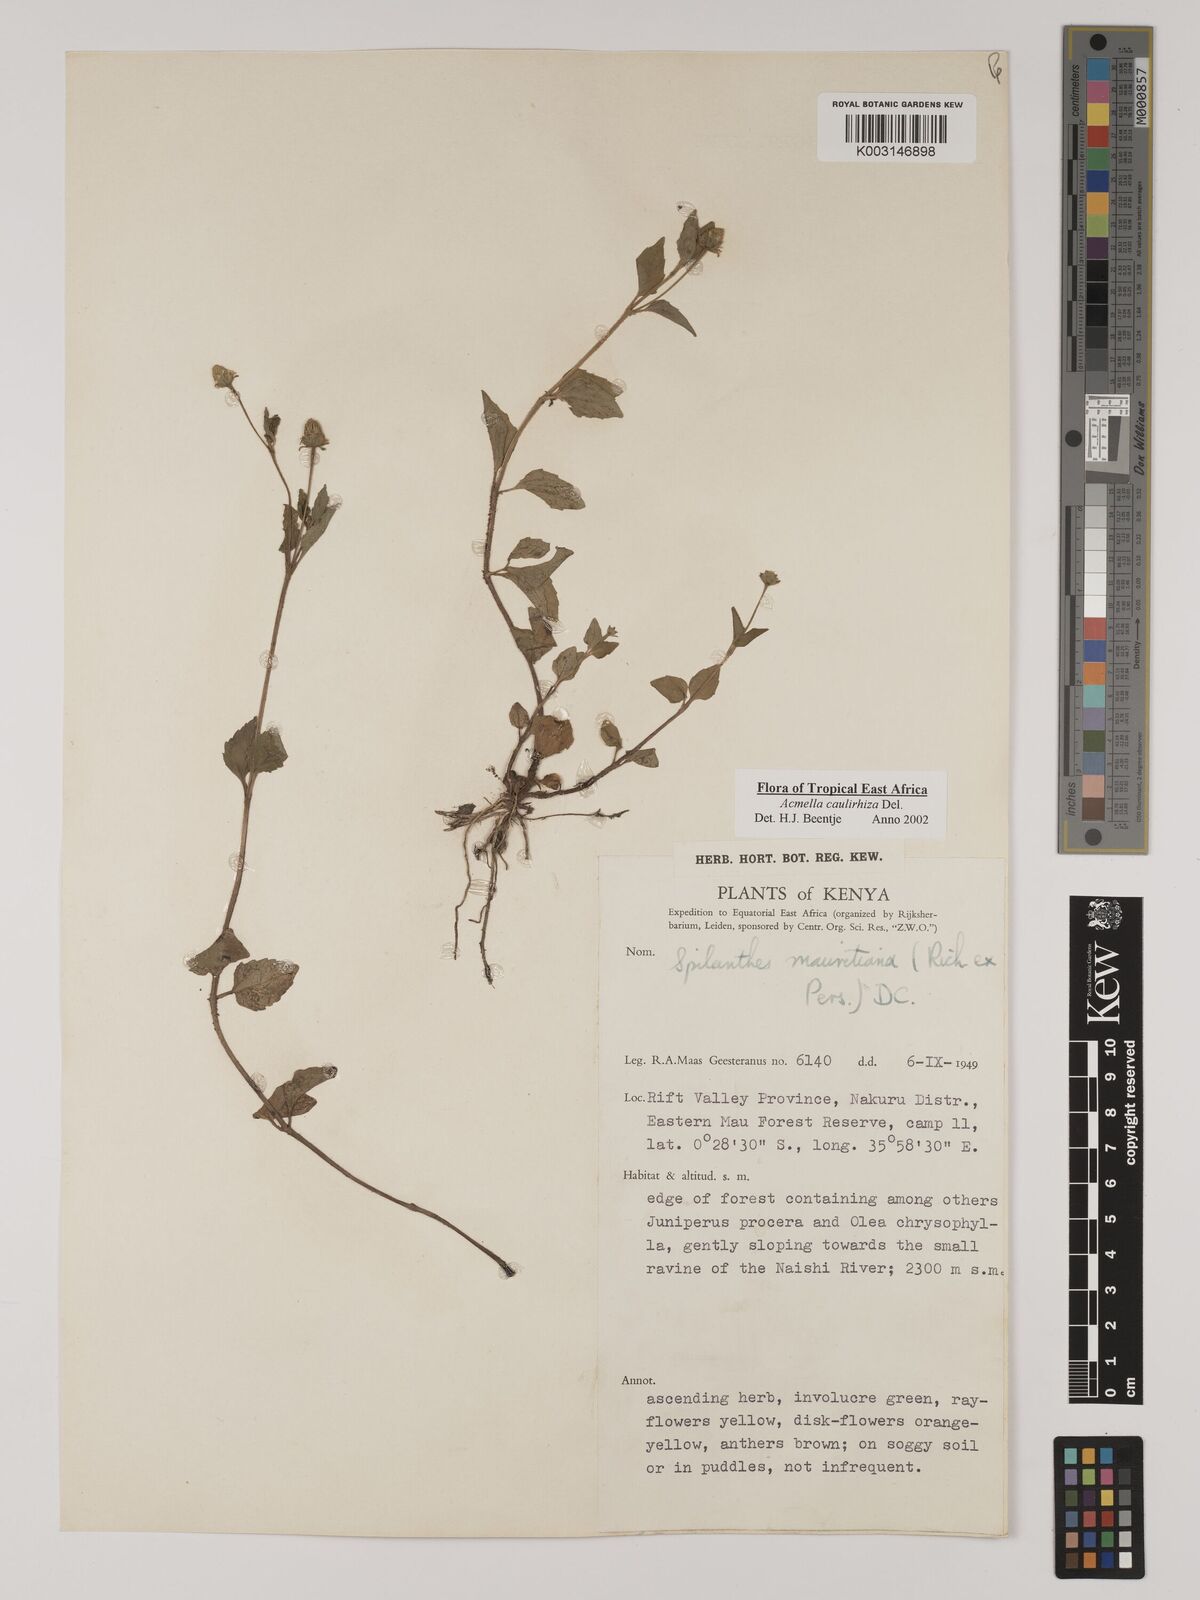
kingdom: Plantae
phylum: Tracheophyta
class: Magnoliopsida
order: Asterales
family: Asteraceae
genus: Acmella
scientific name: Acmella caulirhiza
